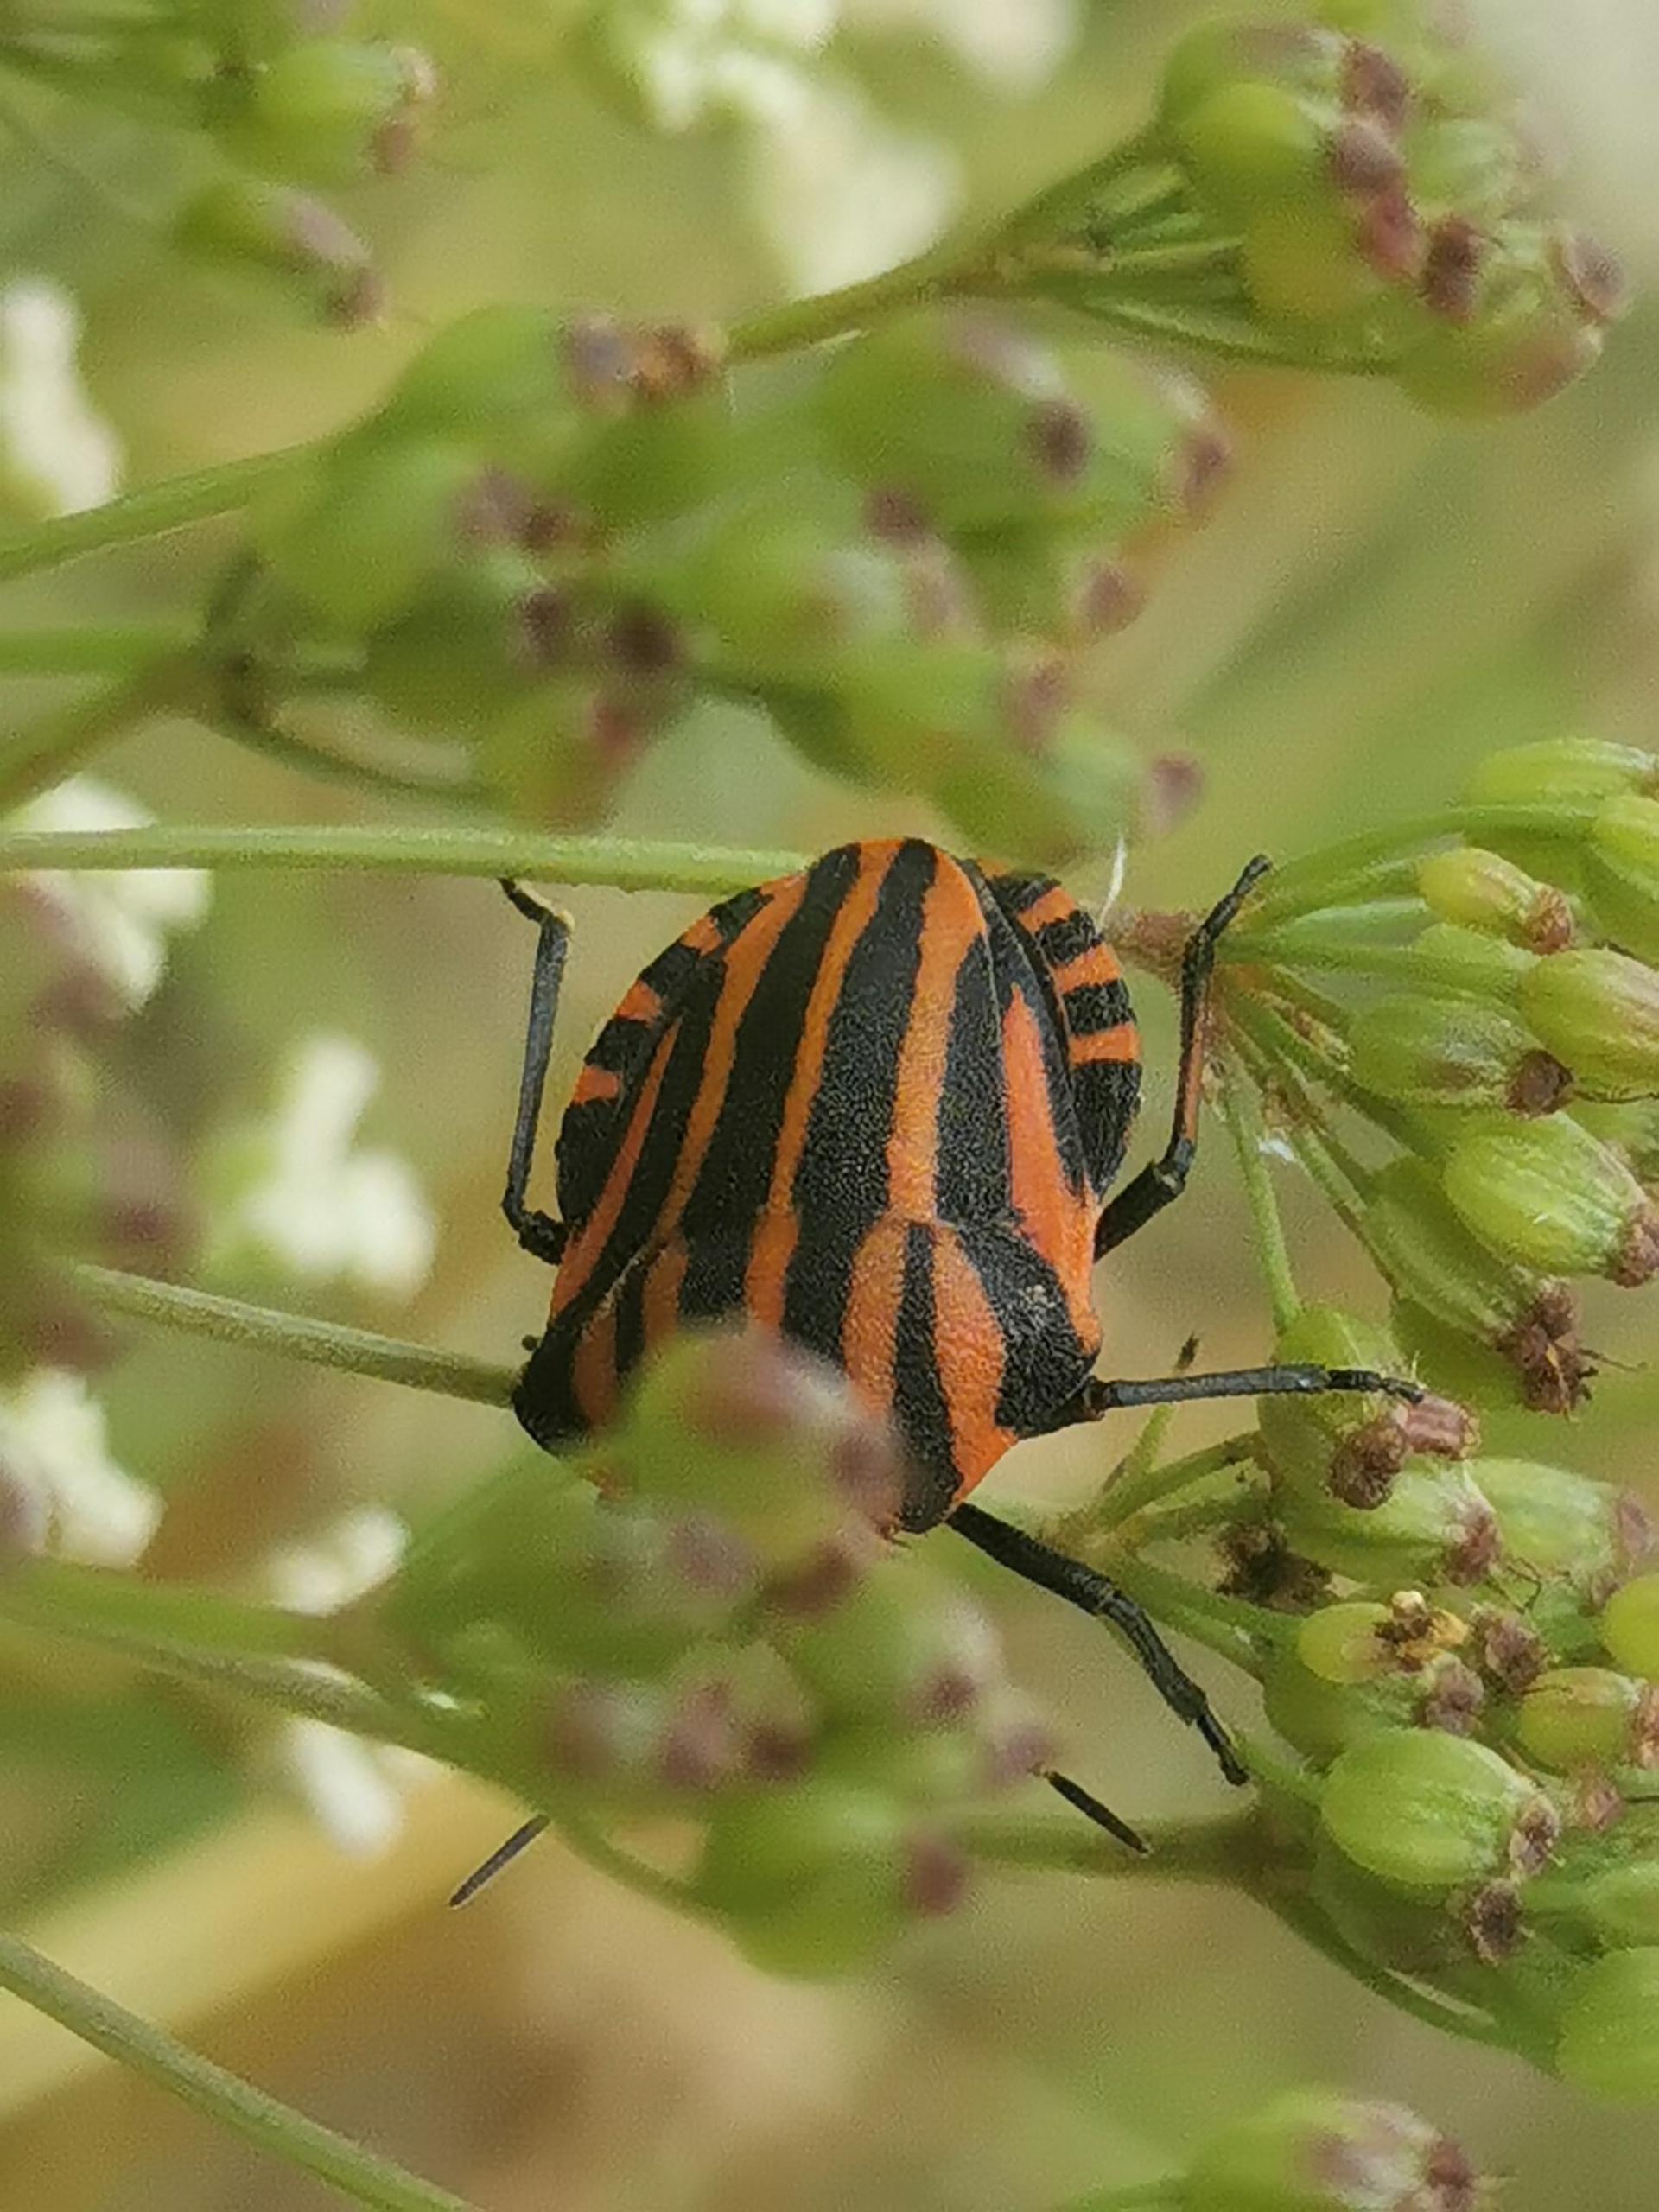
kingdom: Animalia
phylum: Arthropoda
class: Insecta
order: Hemiptera
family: Pentatomidae
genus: Graphosoma
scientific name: Graphosoma italicum
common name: Stribetæge
